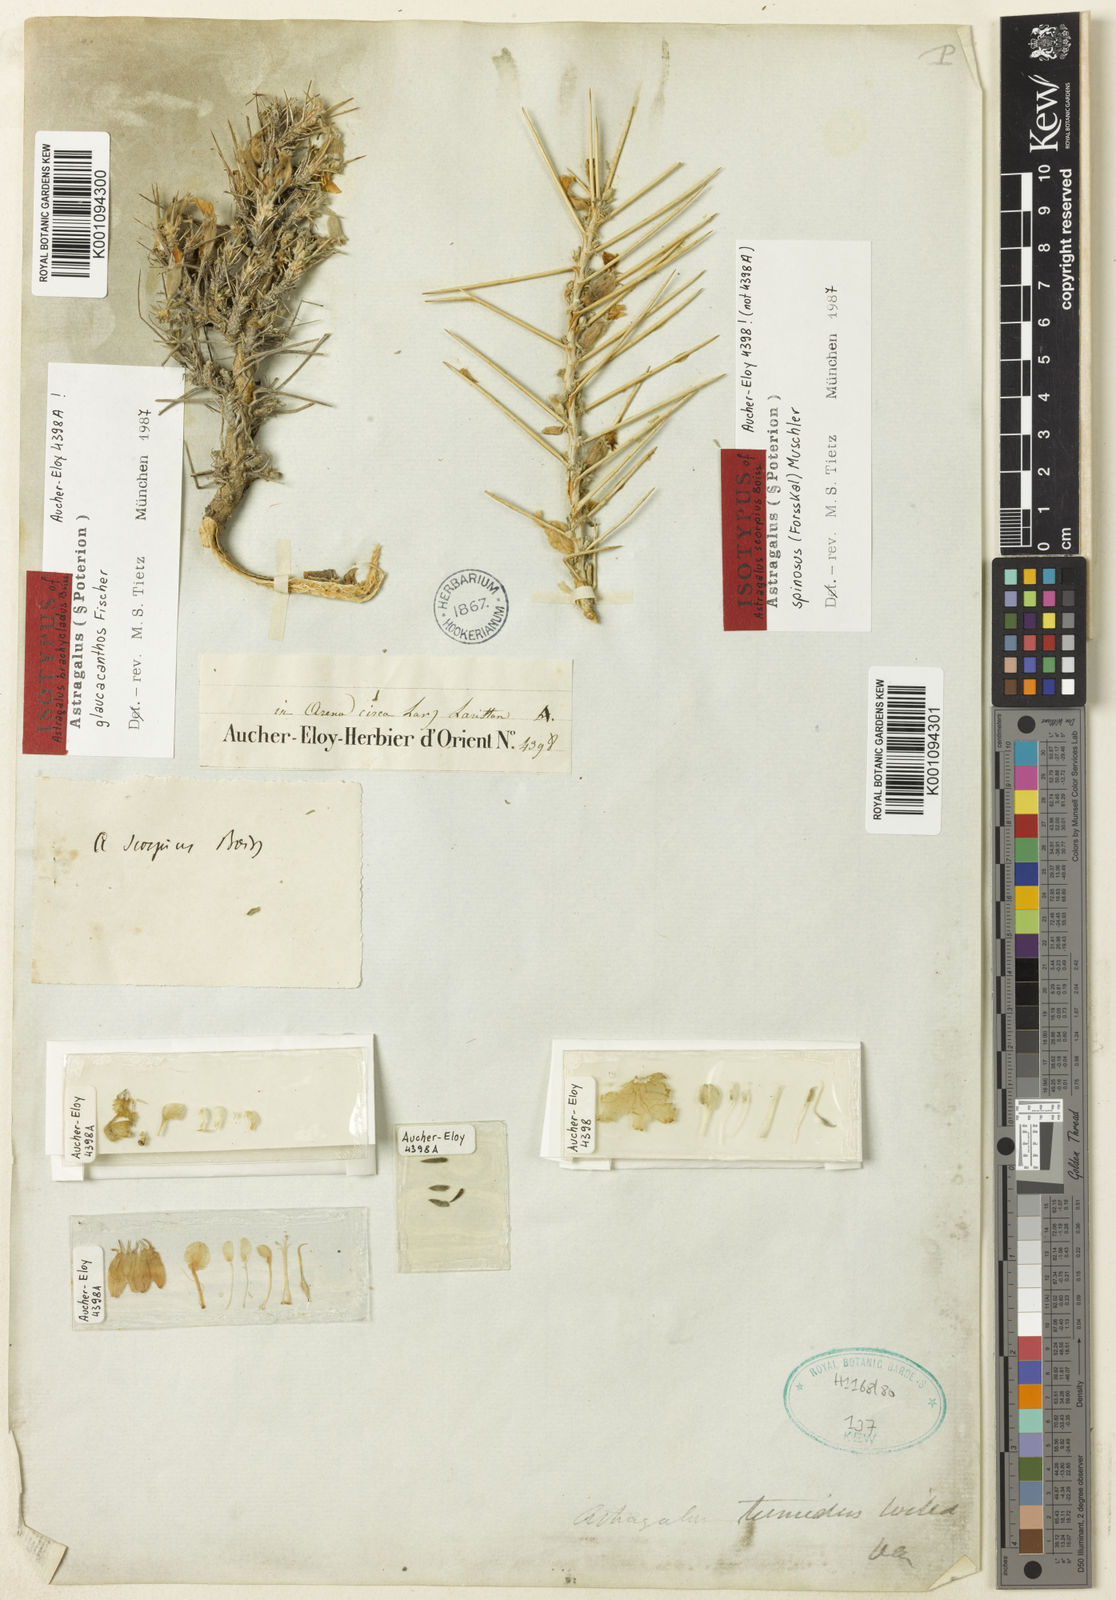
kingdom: Plantae
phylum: Tracheophyta
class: Magnoliopsida
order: Fabales
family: Fabaceae
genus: Astragalus
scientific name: Astragalus
